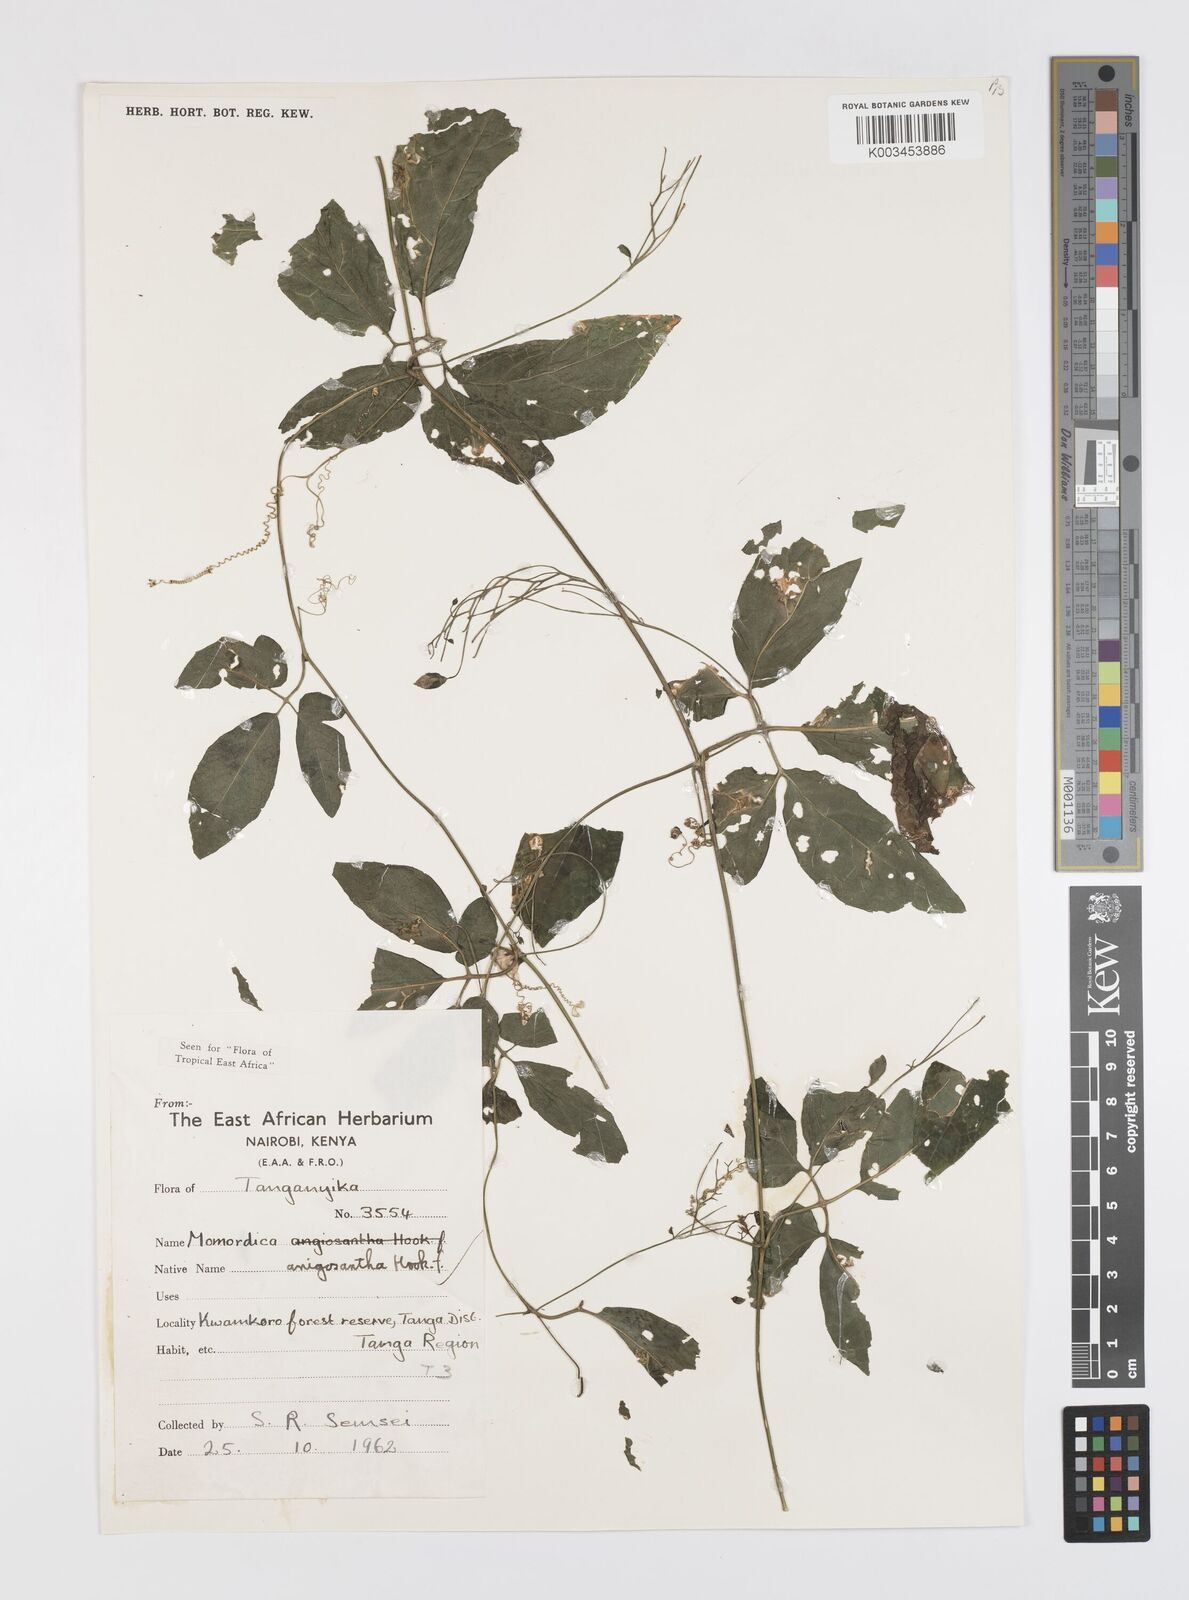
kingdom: Plantae
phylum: Tracheophyta
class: Magnoliopsida
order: Cucurbitales
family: Cucurbitaceae
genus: Momordica
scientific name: Momordica anigosantha
